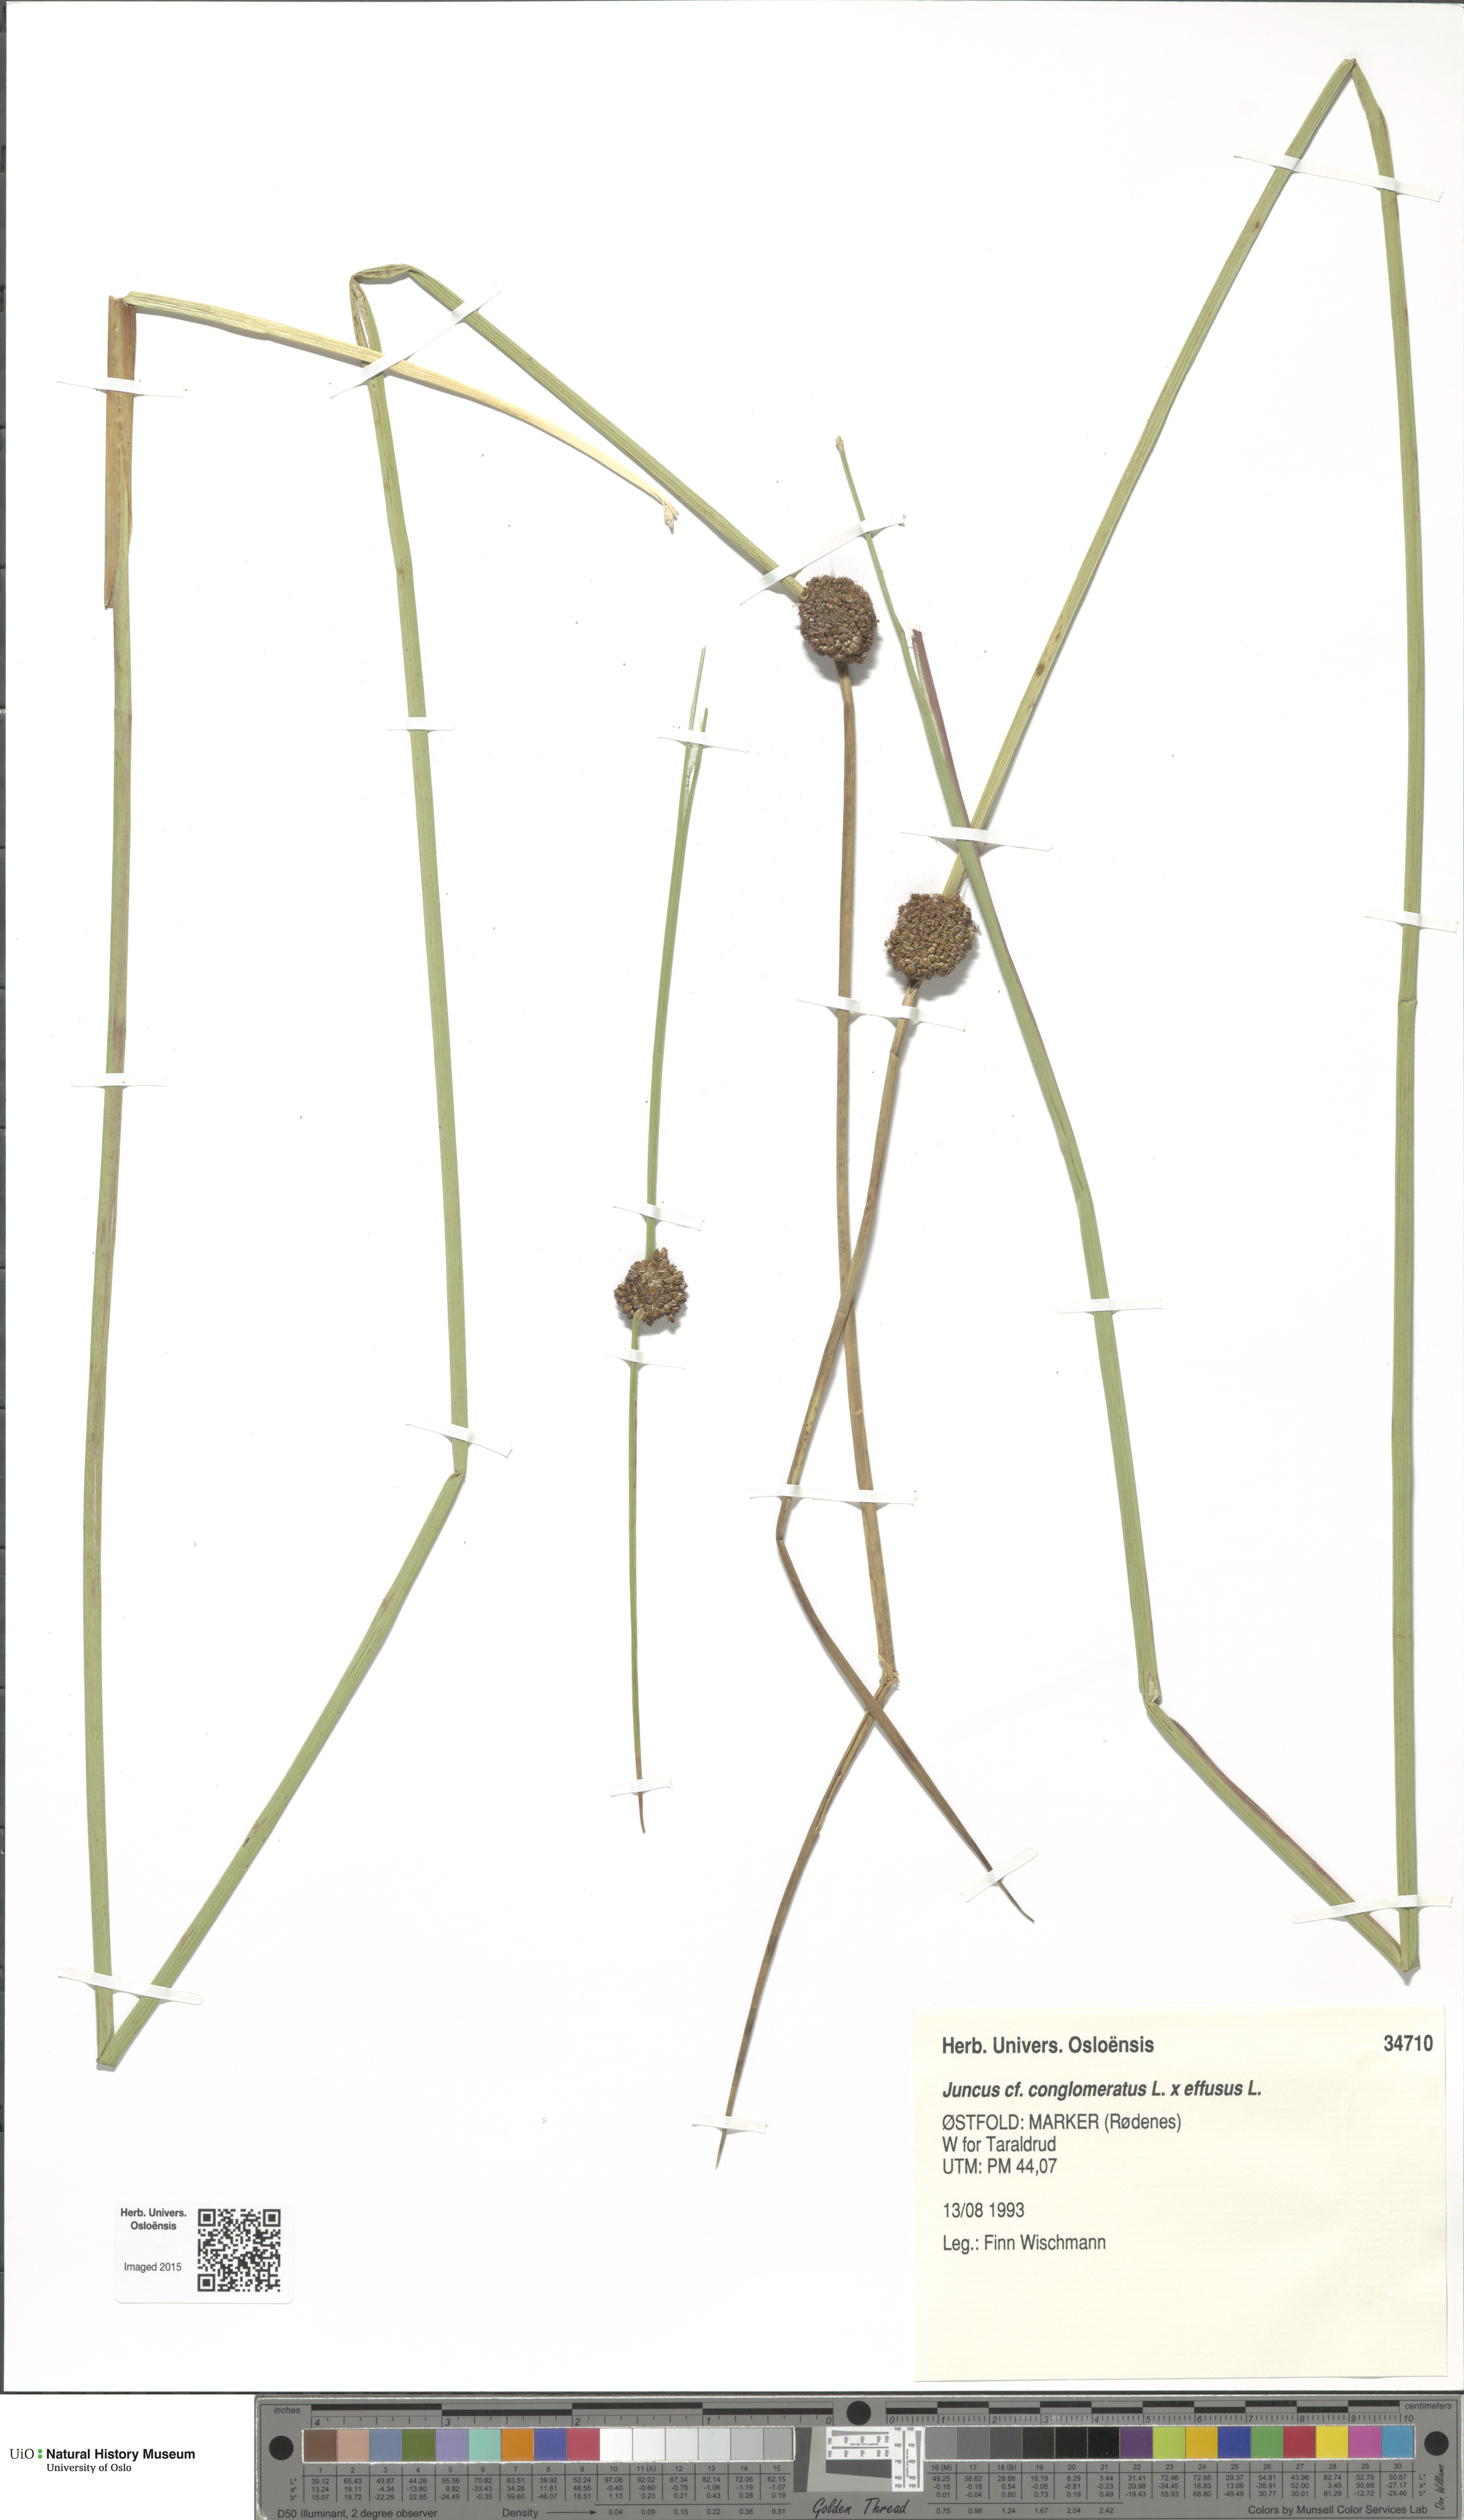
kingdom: Plantae
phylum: Tracheophyta
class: Liliopsida
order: Poales
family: Juncaceae
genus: Juncus
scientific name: Juncus
